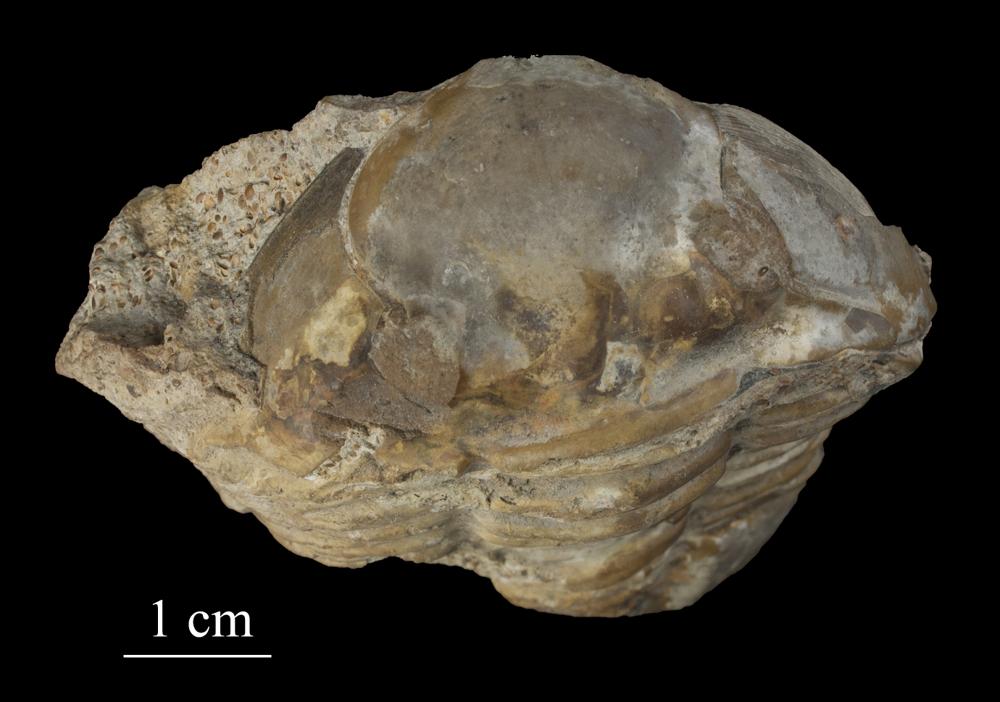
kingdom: Animalia
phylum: Arthropoda
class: Trilobita
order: Asaphida
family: Asaphidae
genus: Asaphus
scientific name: Asaphus kowalewskii
